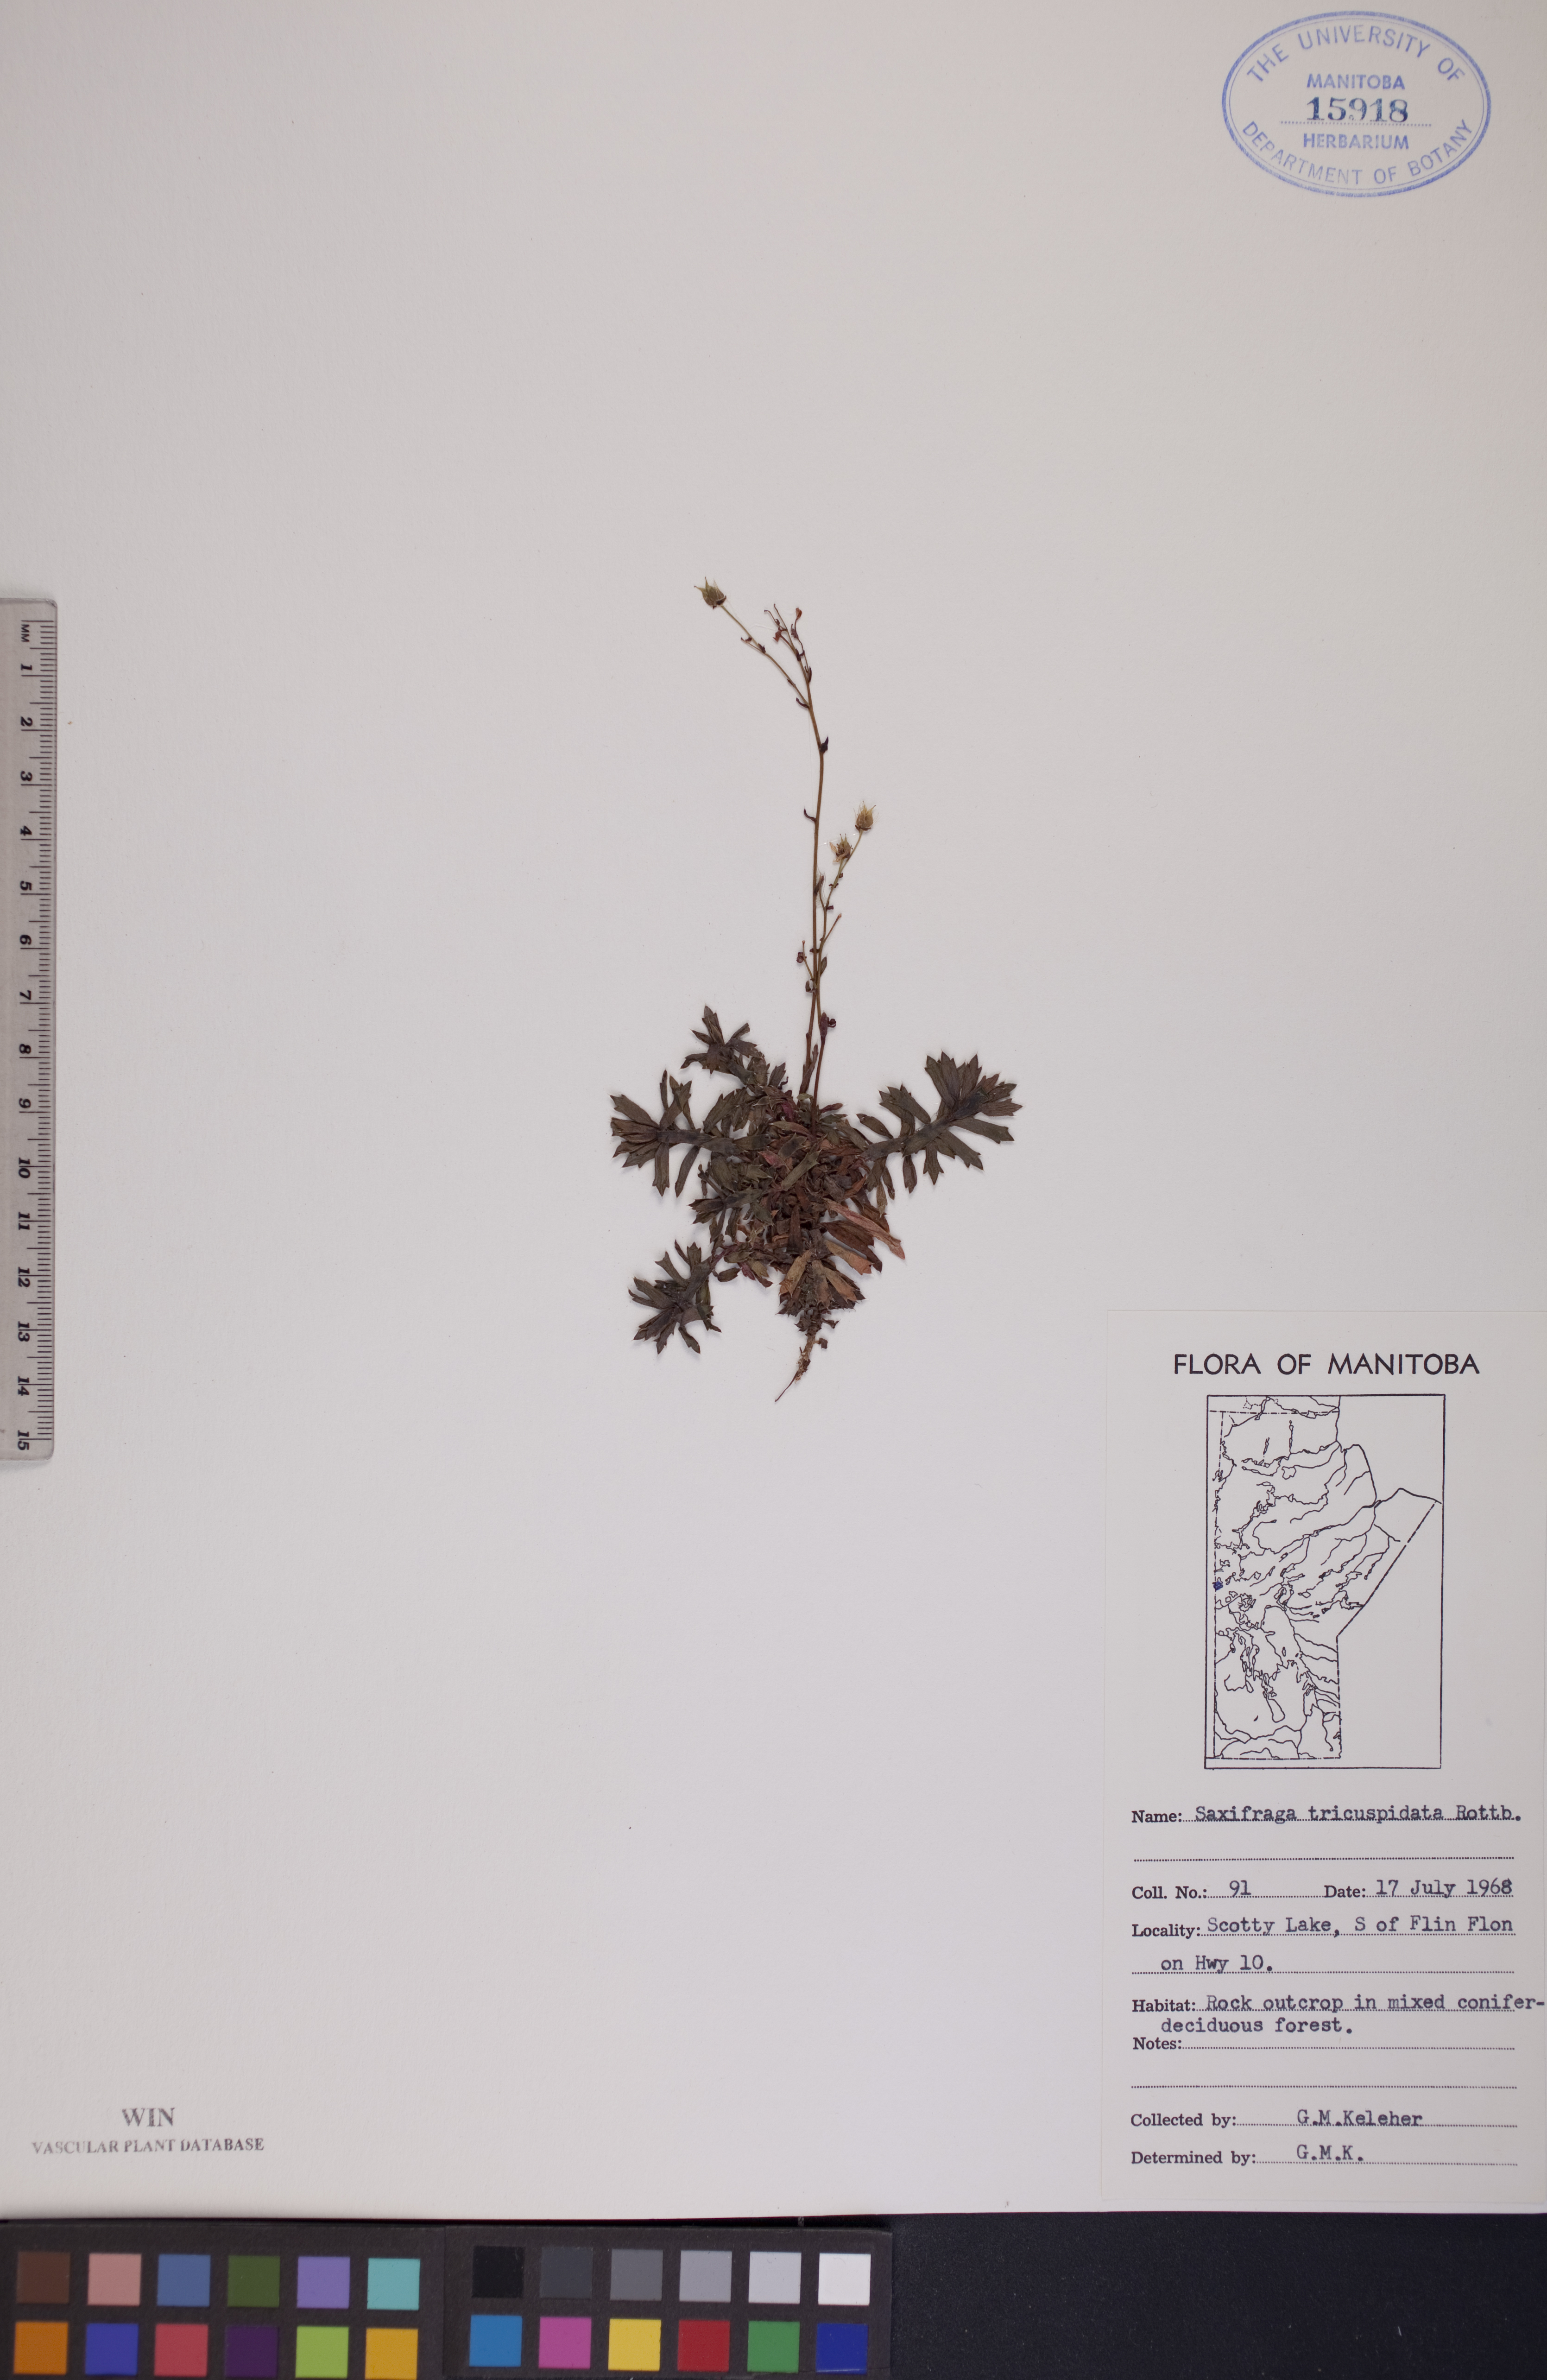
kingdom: Plantae
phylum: Tracheophyta
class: Magnoliopsida
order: Saxifragales
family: Saxifragaceae
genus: Saxifraga
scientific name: Saxifraga tricuspidata
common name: Prickly saxifrage
